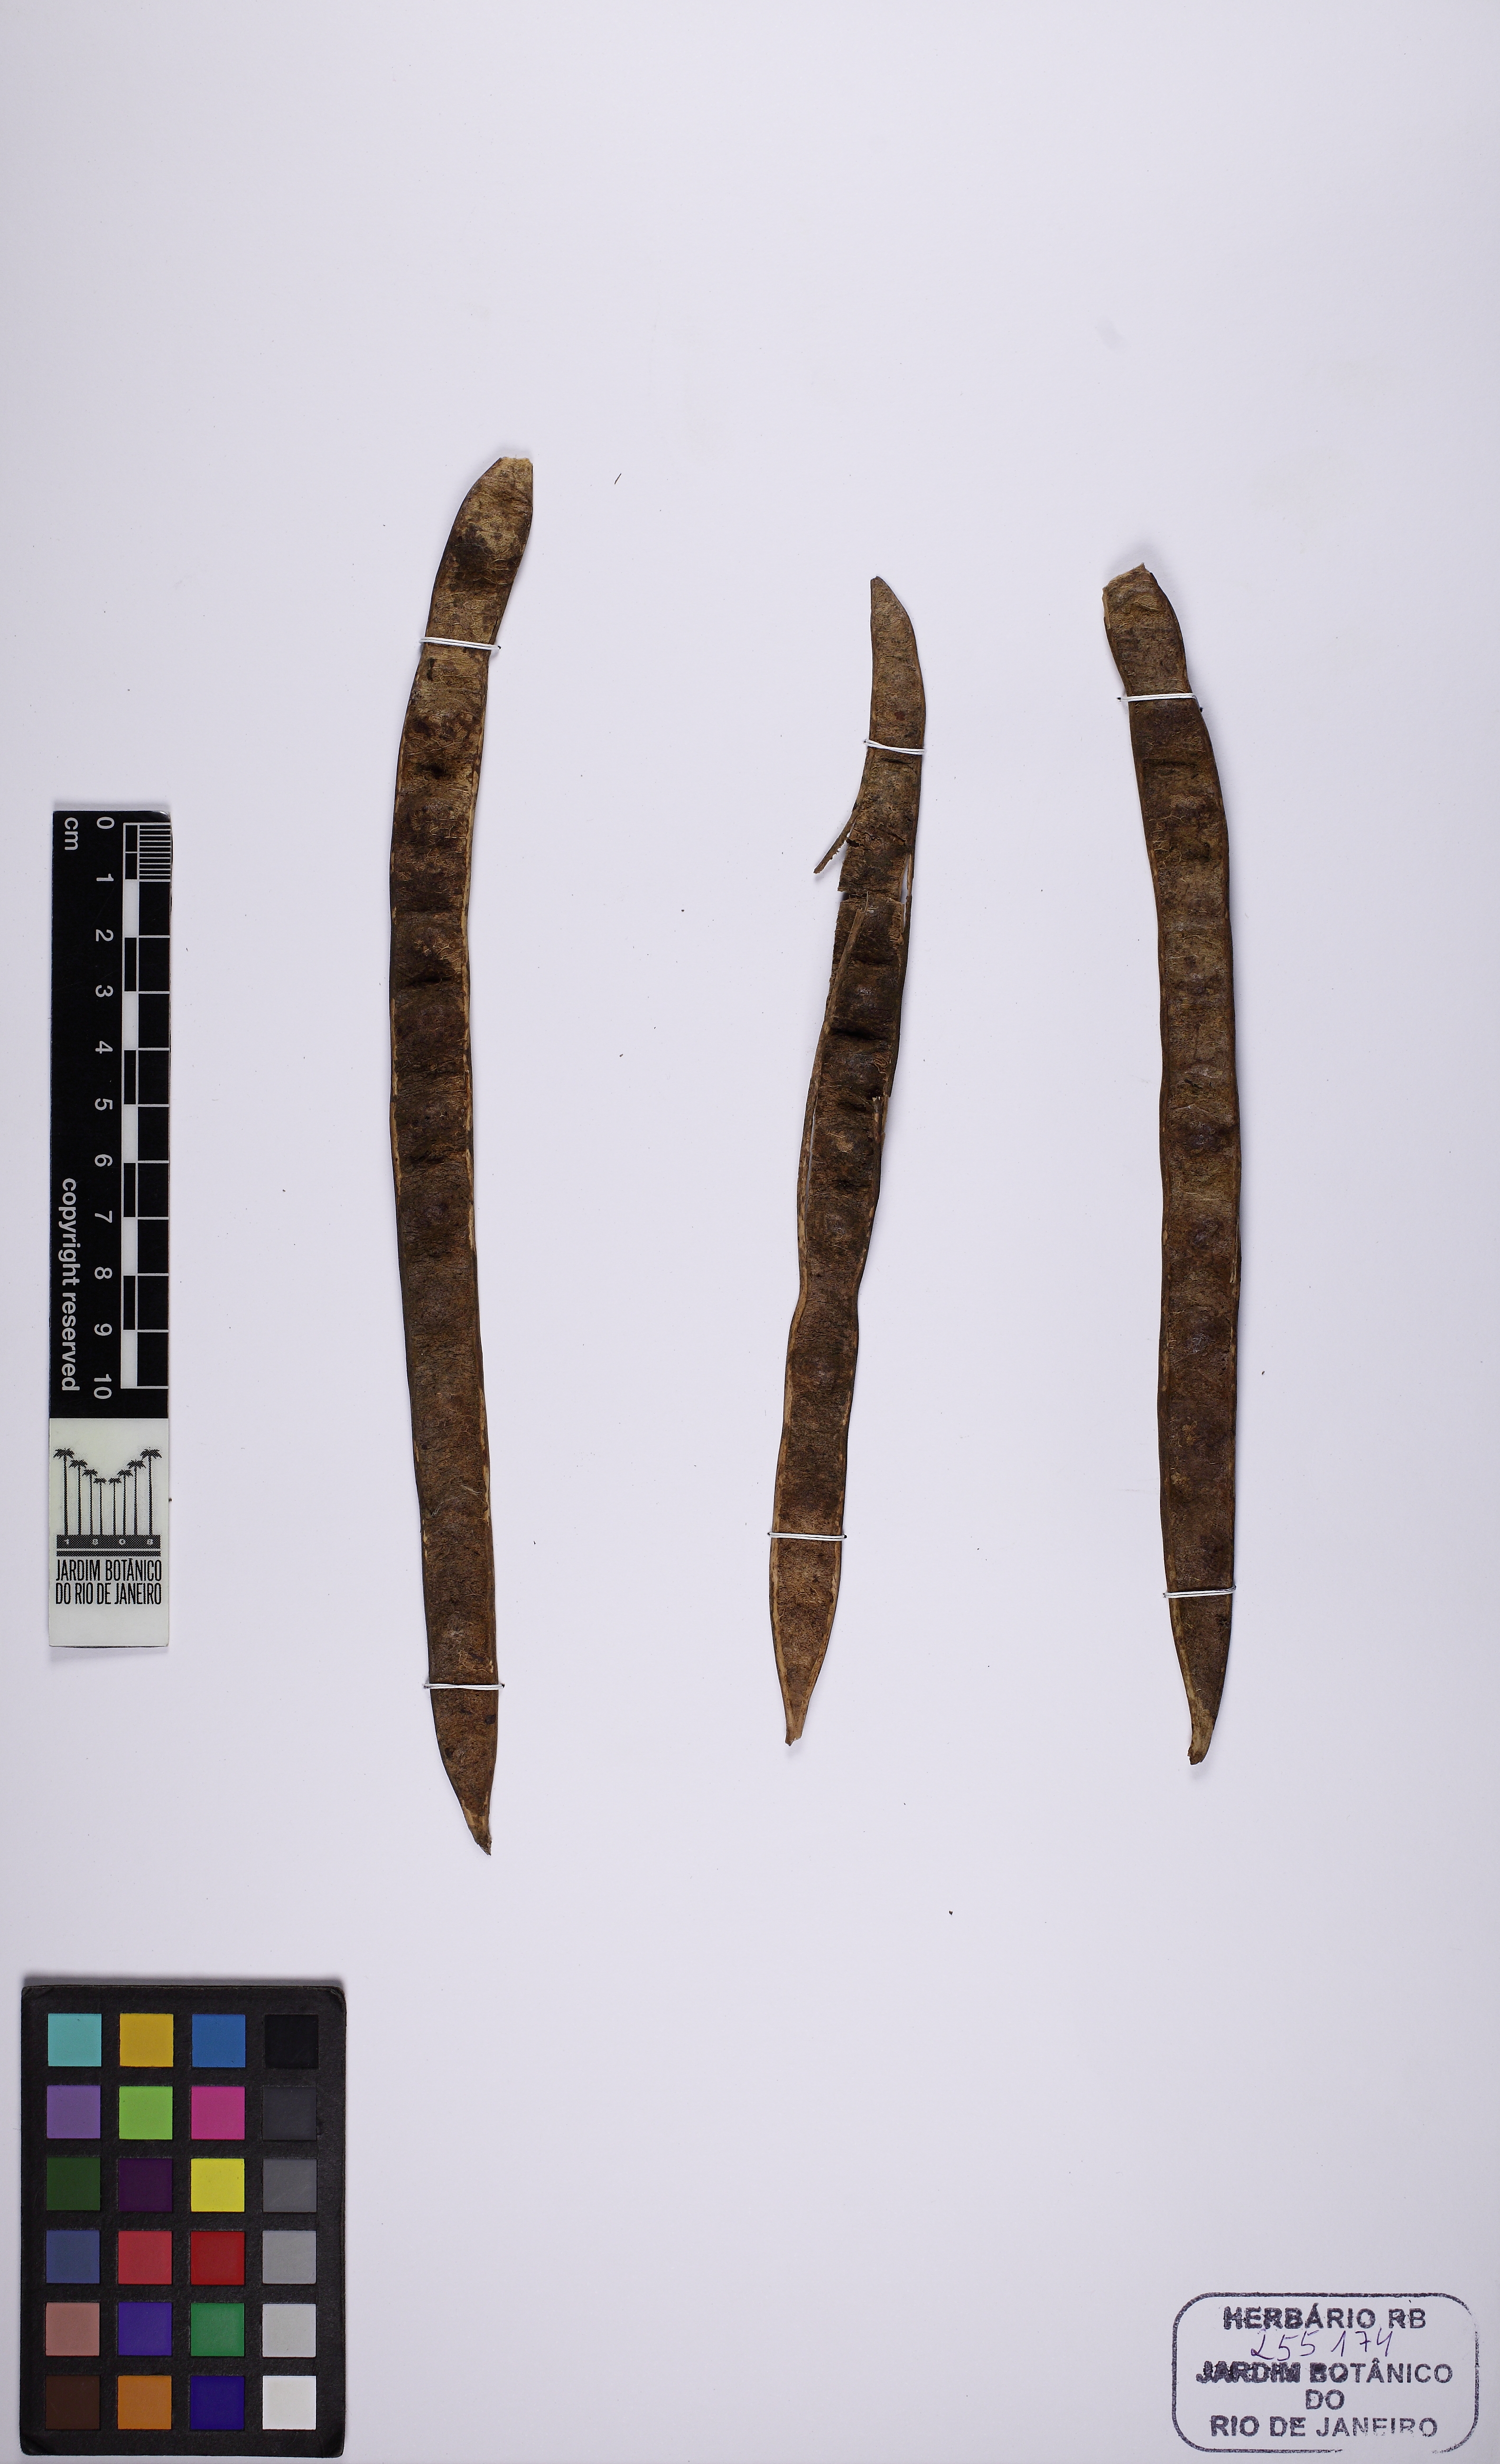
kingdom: Plantae
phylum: Tracheophyta
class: Magnoliopsida
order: Fabales
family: Fabaceae
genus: Senna
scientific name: Senna siamea
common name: Siamese cassia
